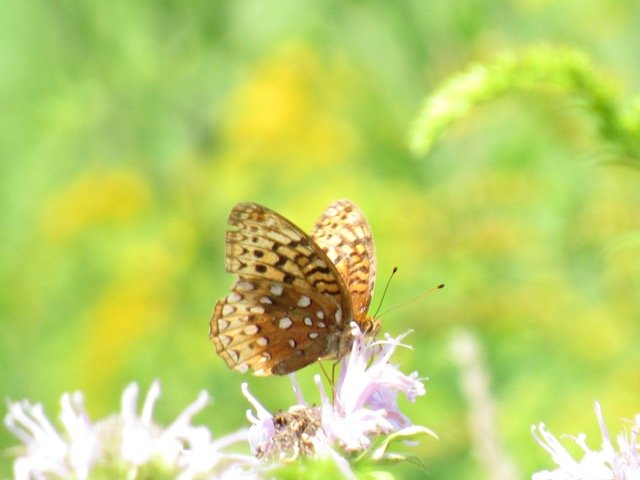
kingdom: Animalia
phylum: Arthropoda
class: Insecta
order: Lepidoptera
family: Nymphalidae
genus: Speyeria
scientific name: Speyeria cybele
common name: Great Spangled Fritillary
